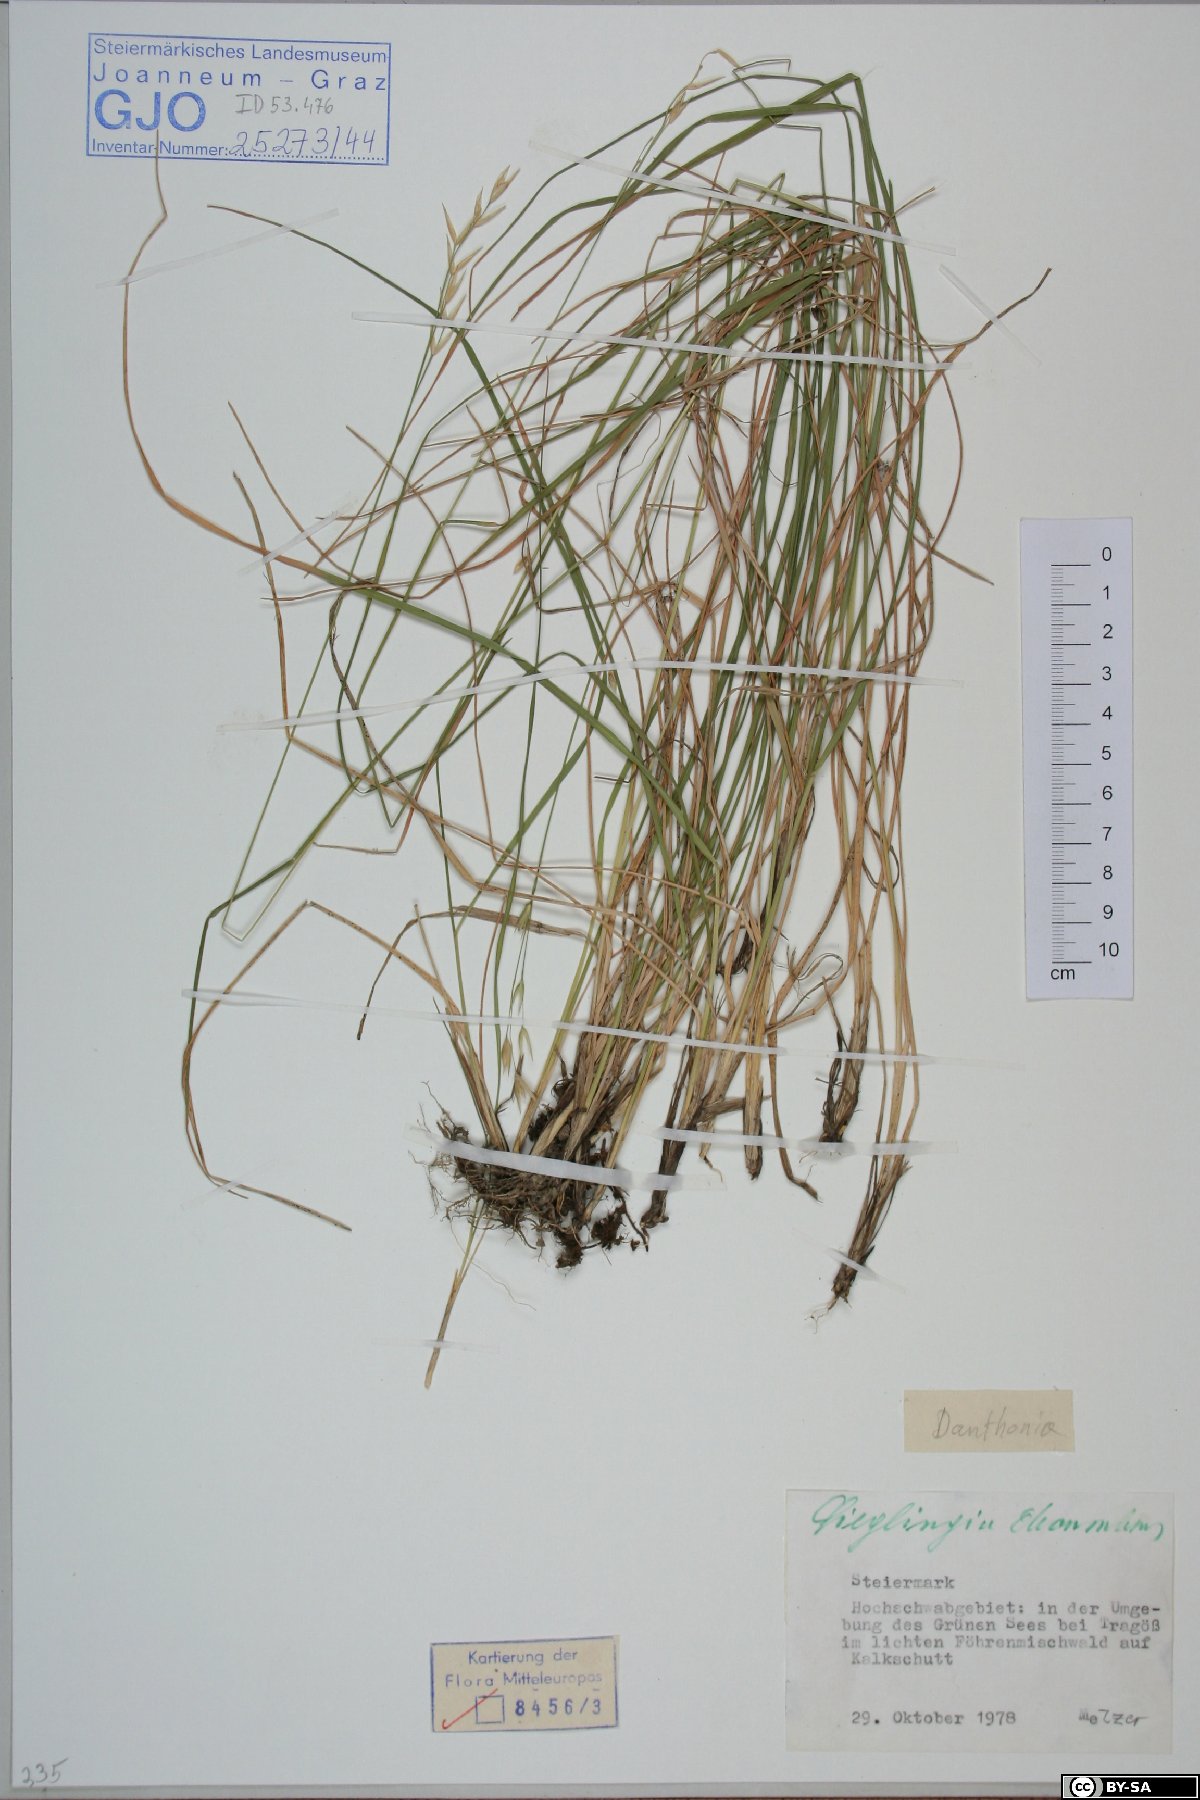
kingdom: Plantae
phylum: Tracheophyta
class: Liliopsida
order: Poales
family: Poaceae
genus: Danthonia
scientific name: Danthonia decumbens
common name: Common heathgrass
